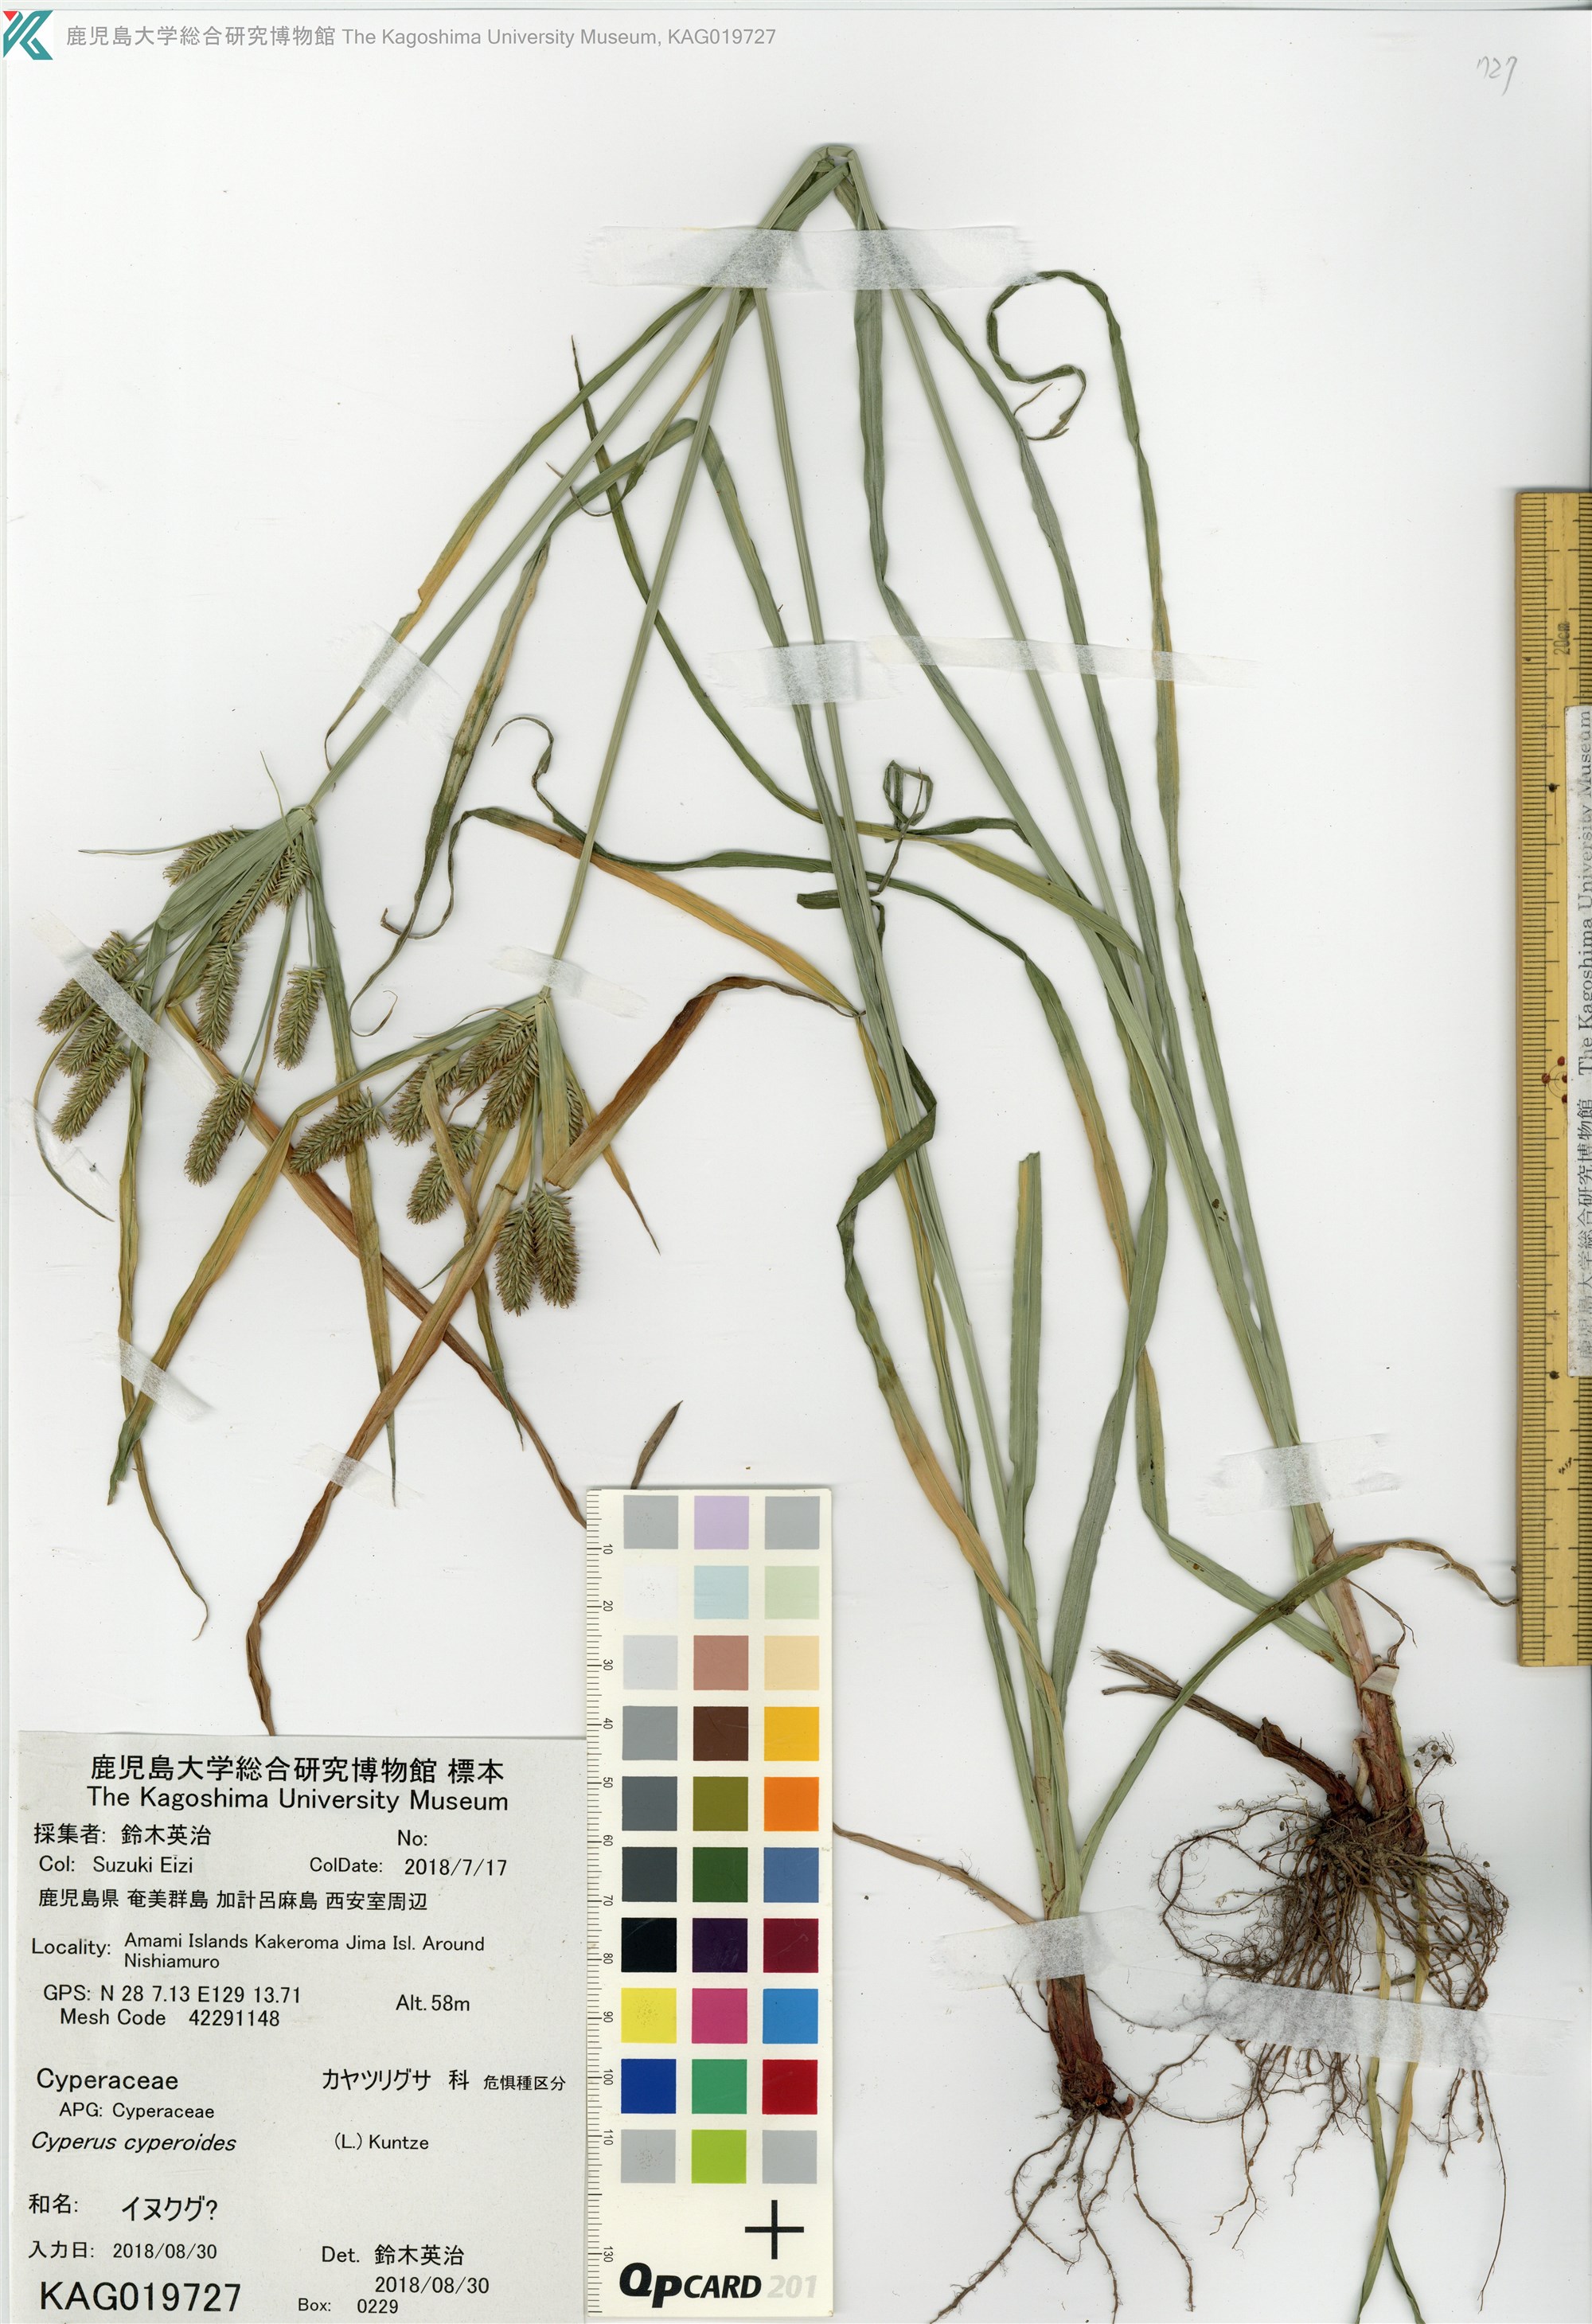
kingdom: Plantae
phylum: Tracheophyta
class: Liliopsida
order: Poales
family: Cyperaceae
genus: Cyperus
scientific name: Cyperus cyperoides
